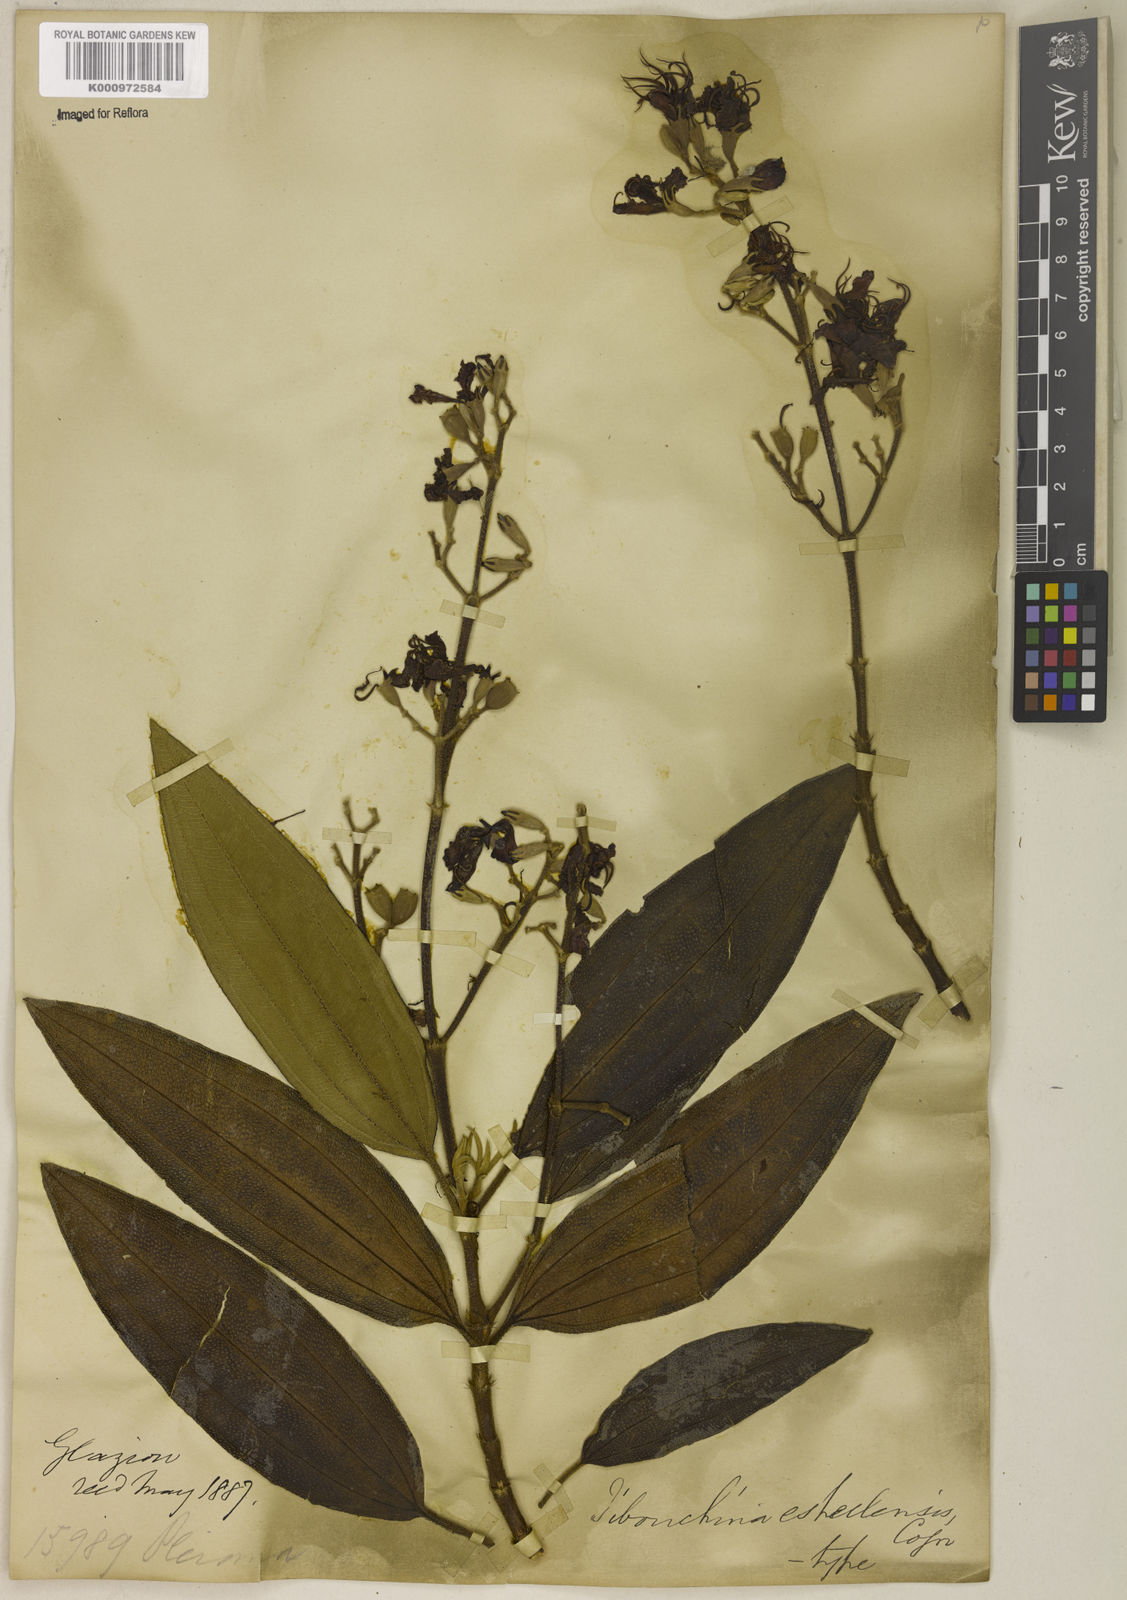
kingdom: Plantae
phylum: Tracheophyta
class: Magnoliopsida
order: Myrtales
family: Melastomataceae
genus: Pleroma
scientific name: Pleroma estrellense
